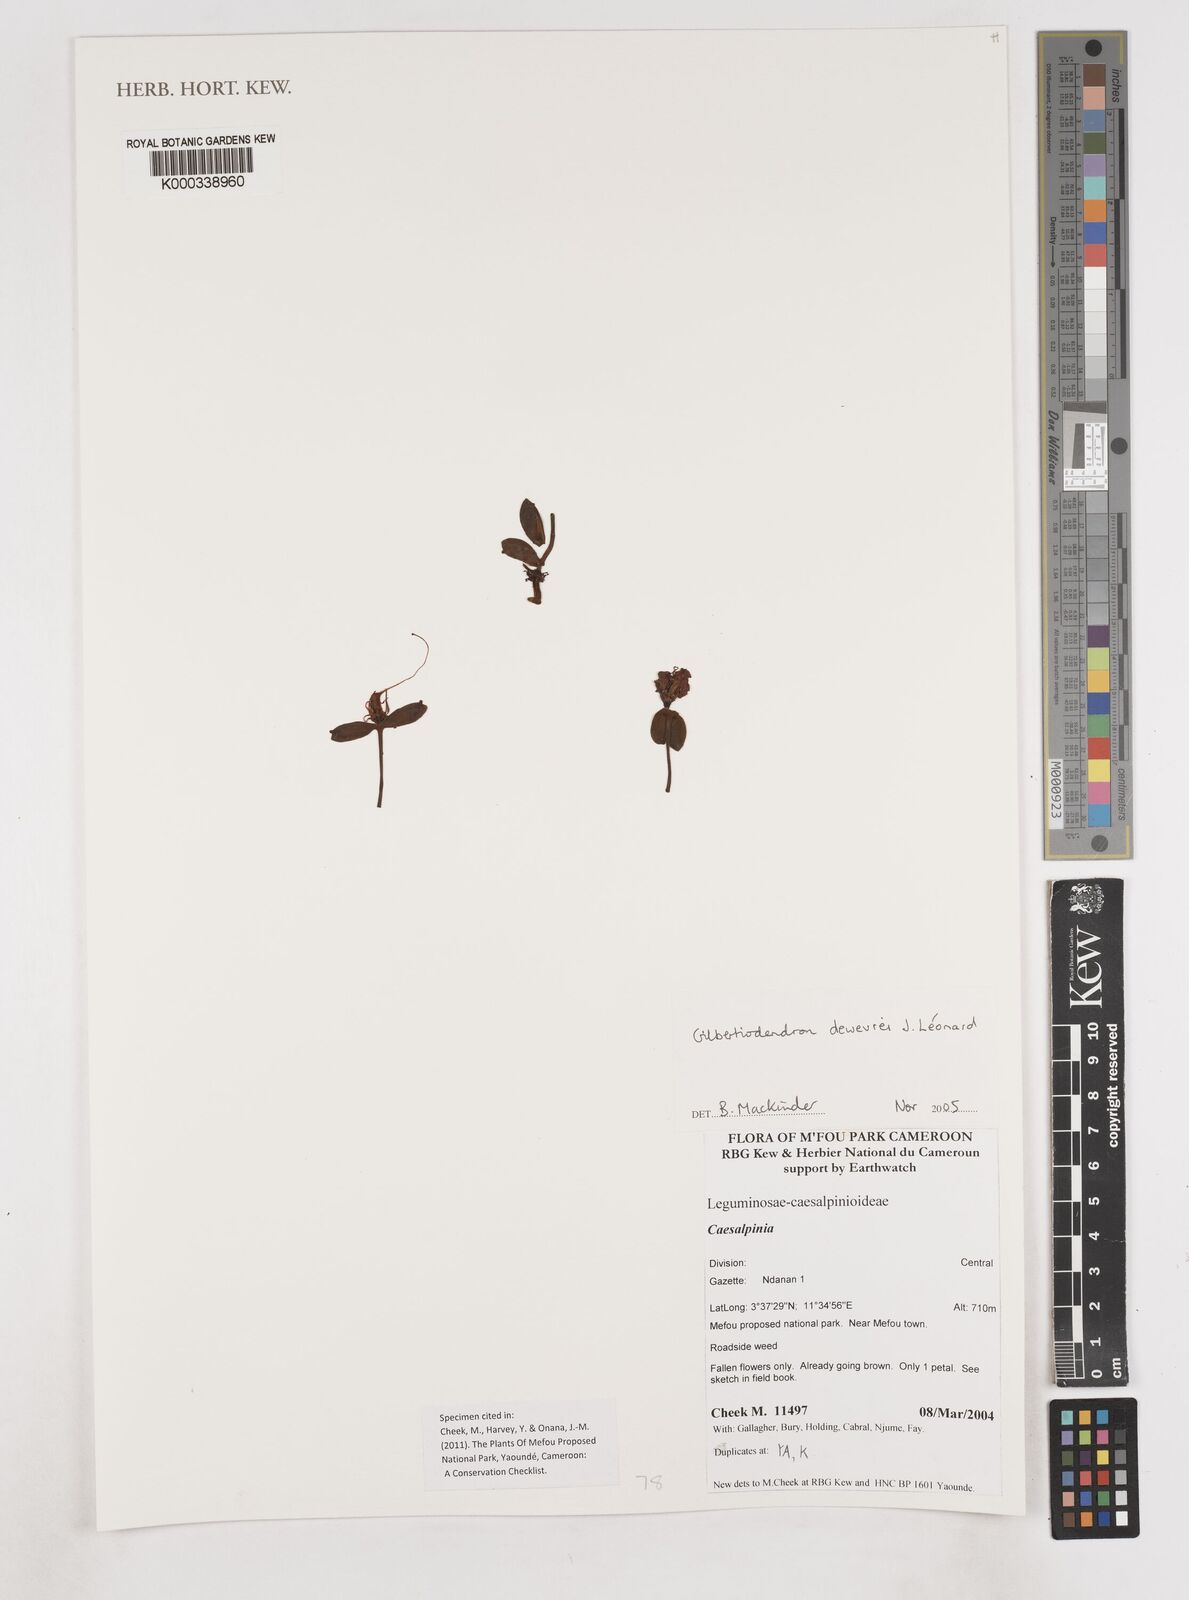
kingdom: Plantae
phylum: Tracheophyta
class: Magnoliopsida
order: Fabales
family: Fabaceae
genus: Gilbertiodendron
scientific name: Gilbertiodendron
